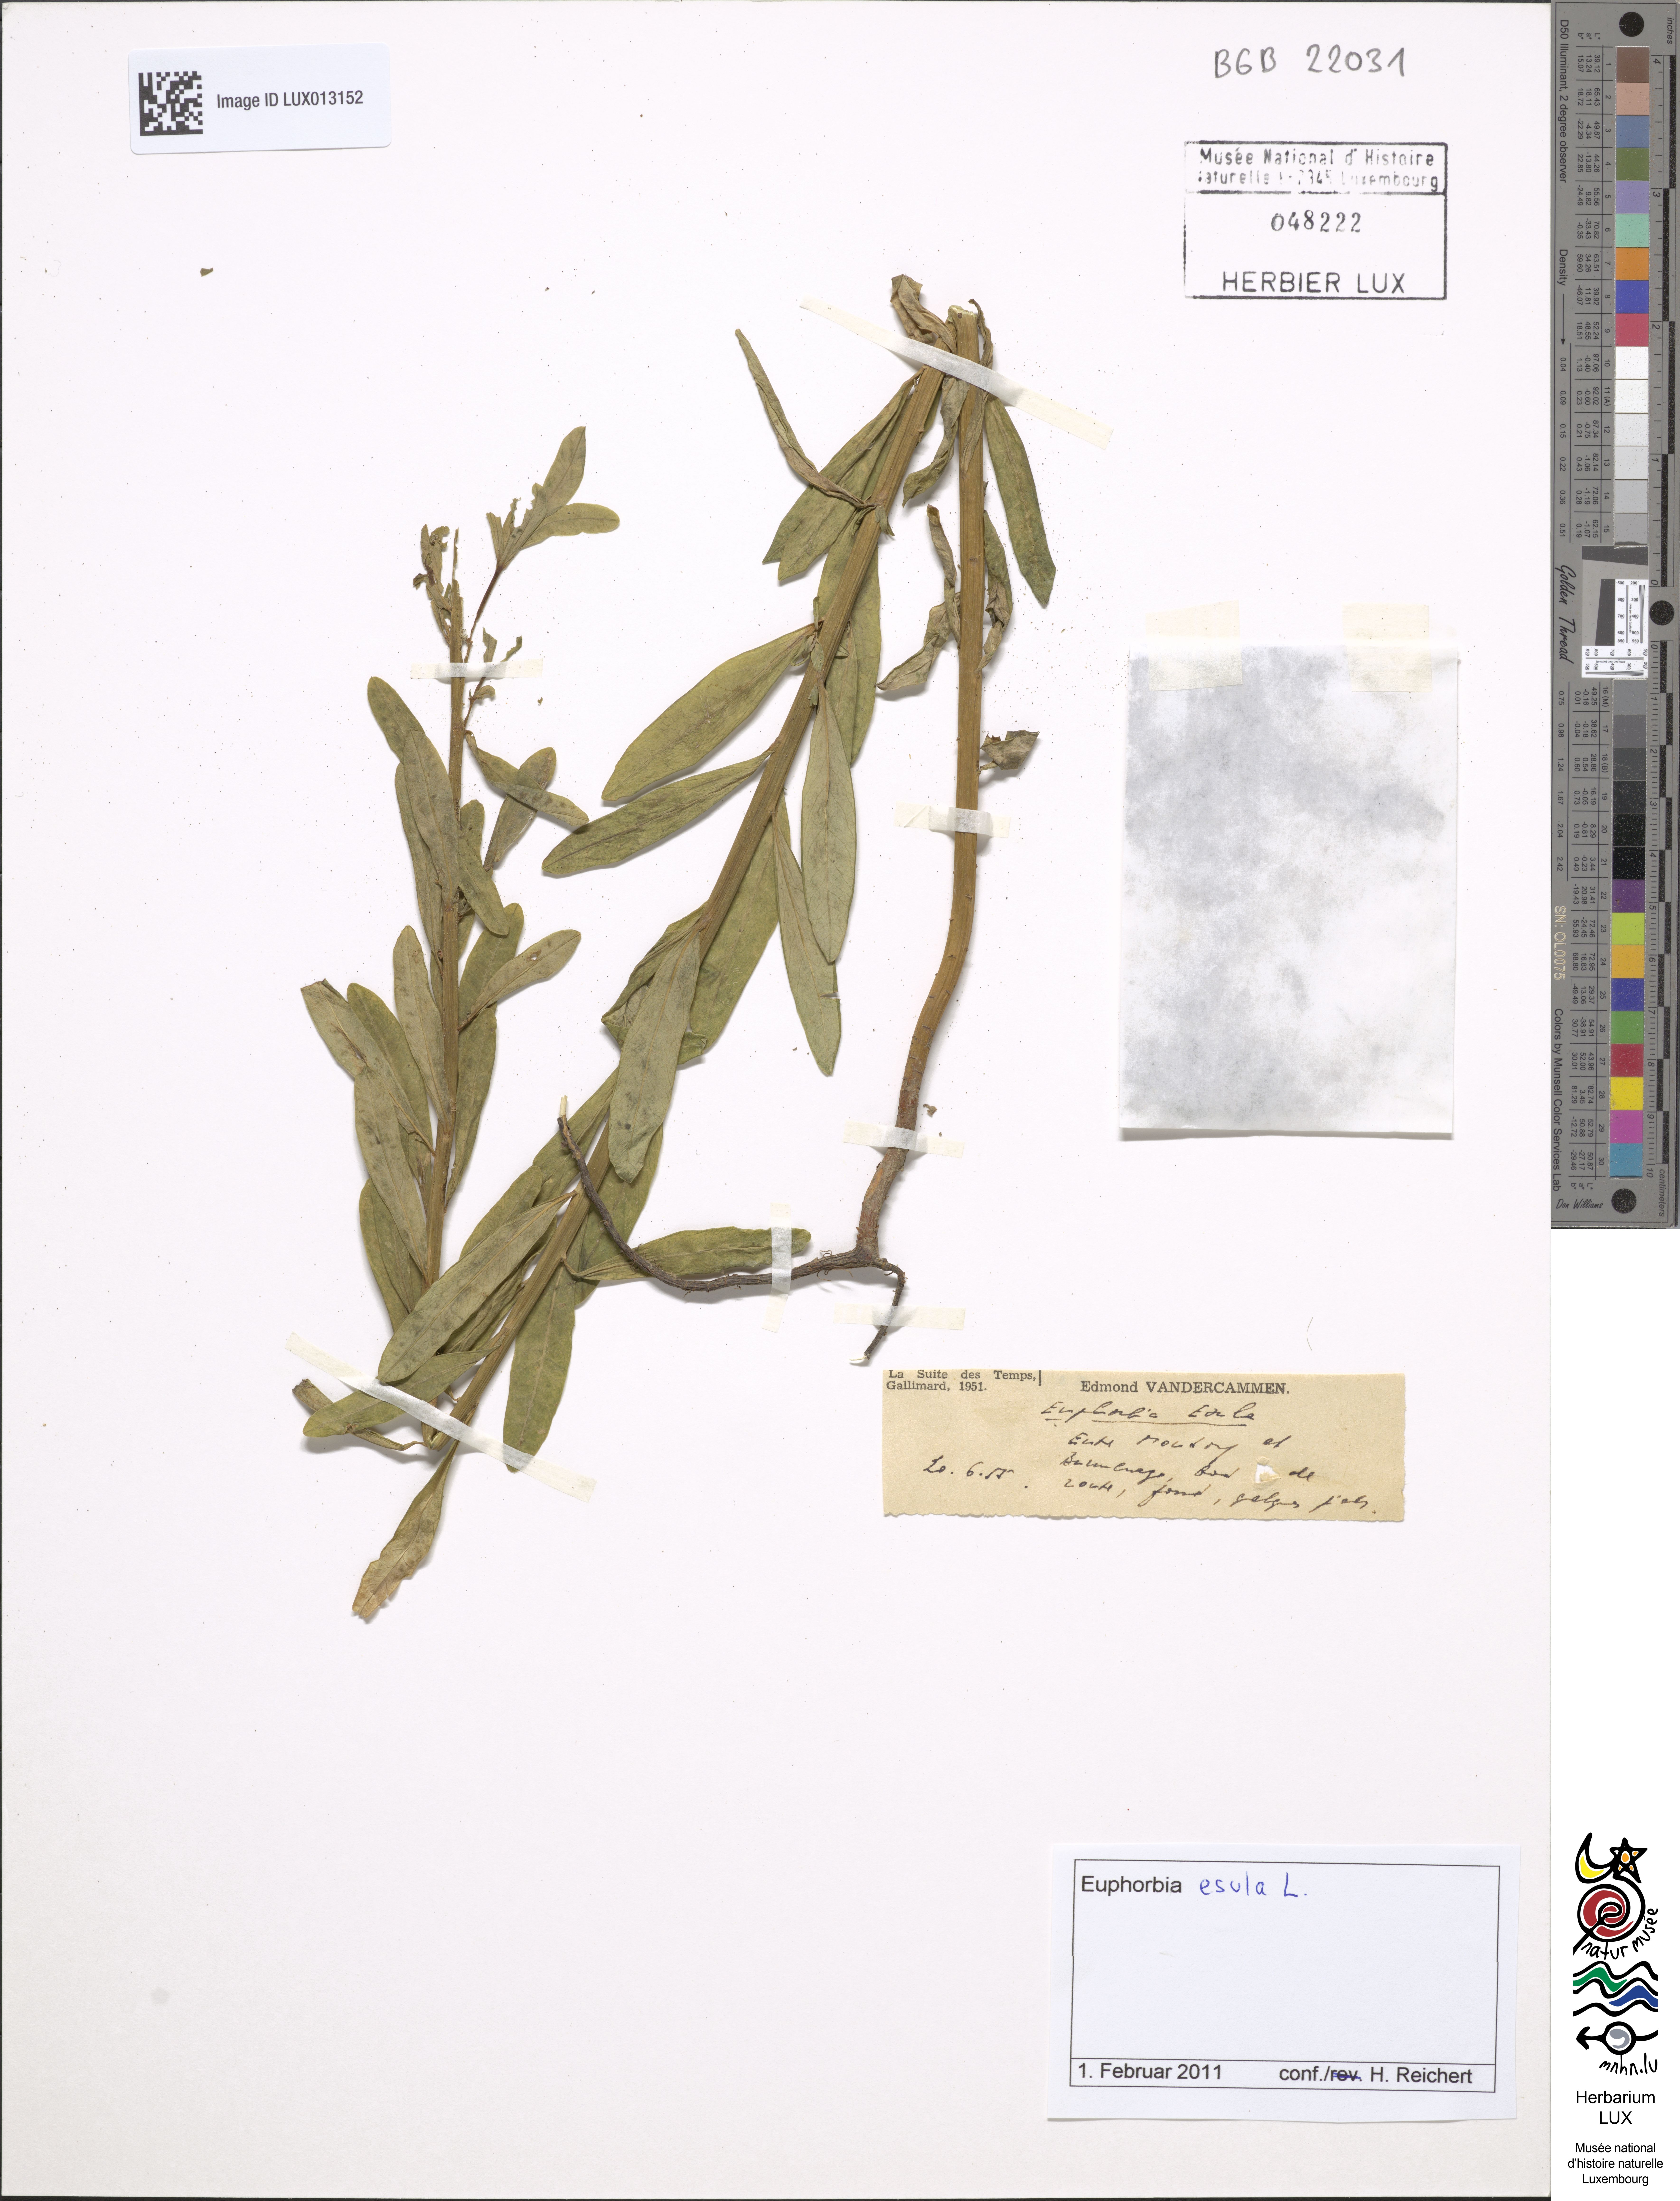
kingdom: Plantae
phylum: Tracheophyta
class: Magnoliopsida
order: Malpighiales
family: Euphorbiaceae
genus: Euphorbia
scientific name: Euphorbia esula
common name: Leafy spurge
